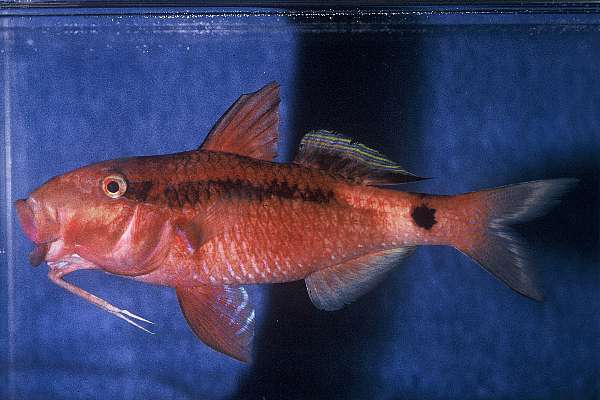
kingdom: Animalia
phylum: Chordata
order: Perciformes
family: Mullidae
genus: Parupeneus
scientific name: Parupeneus macronemus
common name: Long-barbel goatfish
